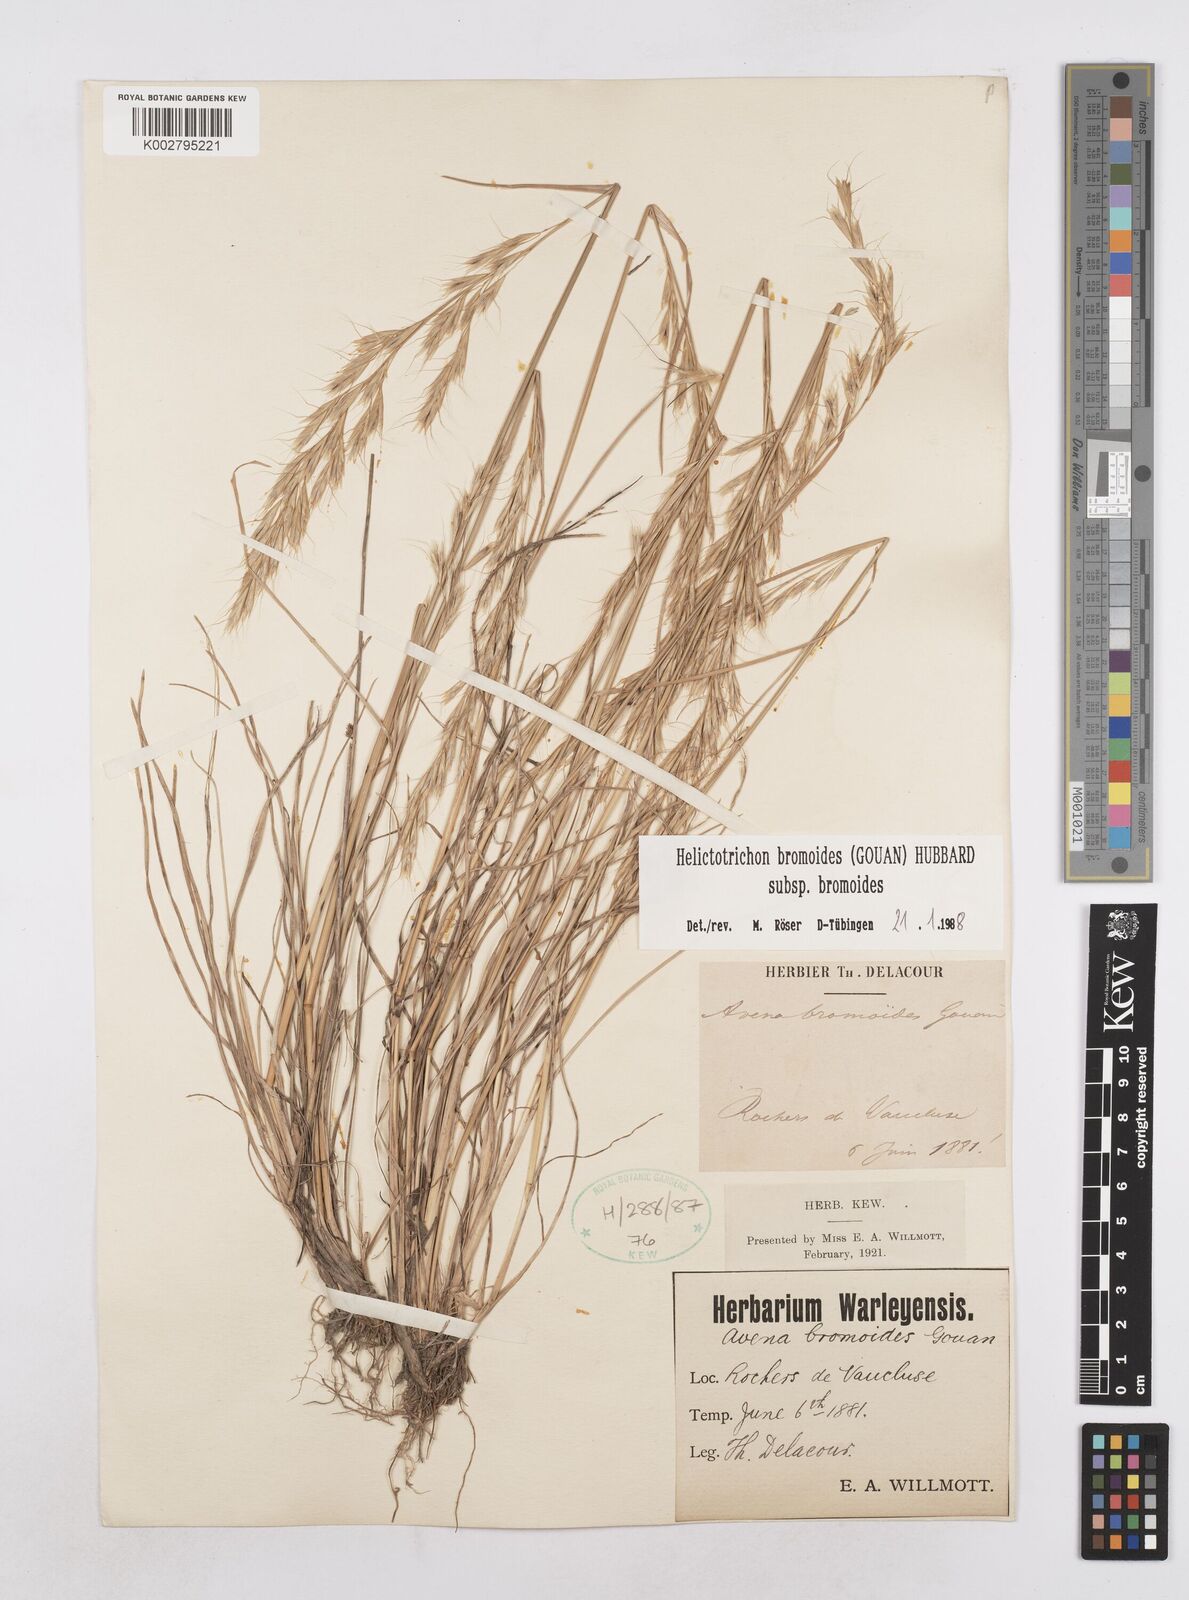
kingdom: Plantae
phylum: Tracheophyta
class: Liliopsida
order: Poales
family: Poaceae
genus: Helictochloa
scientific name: Helictochloa bromoides
